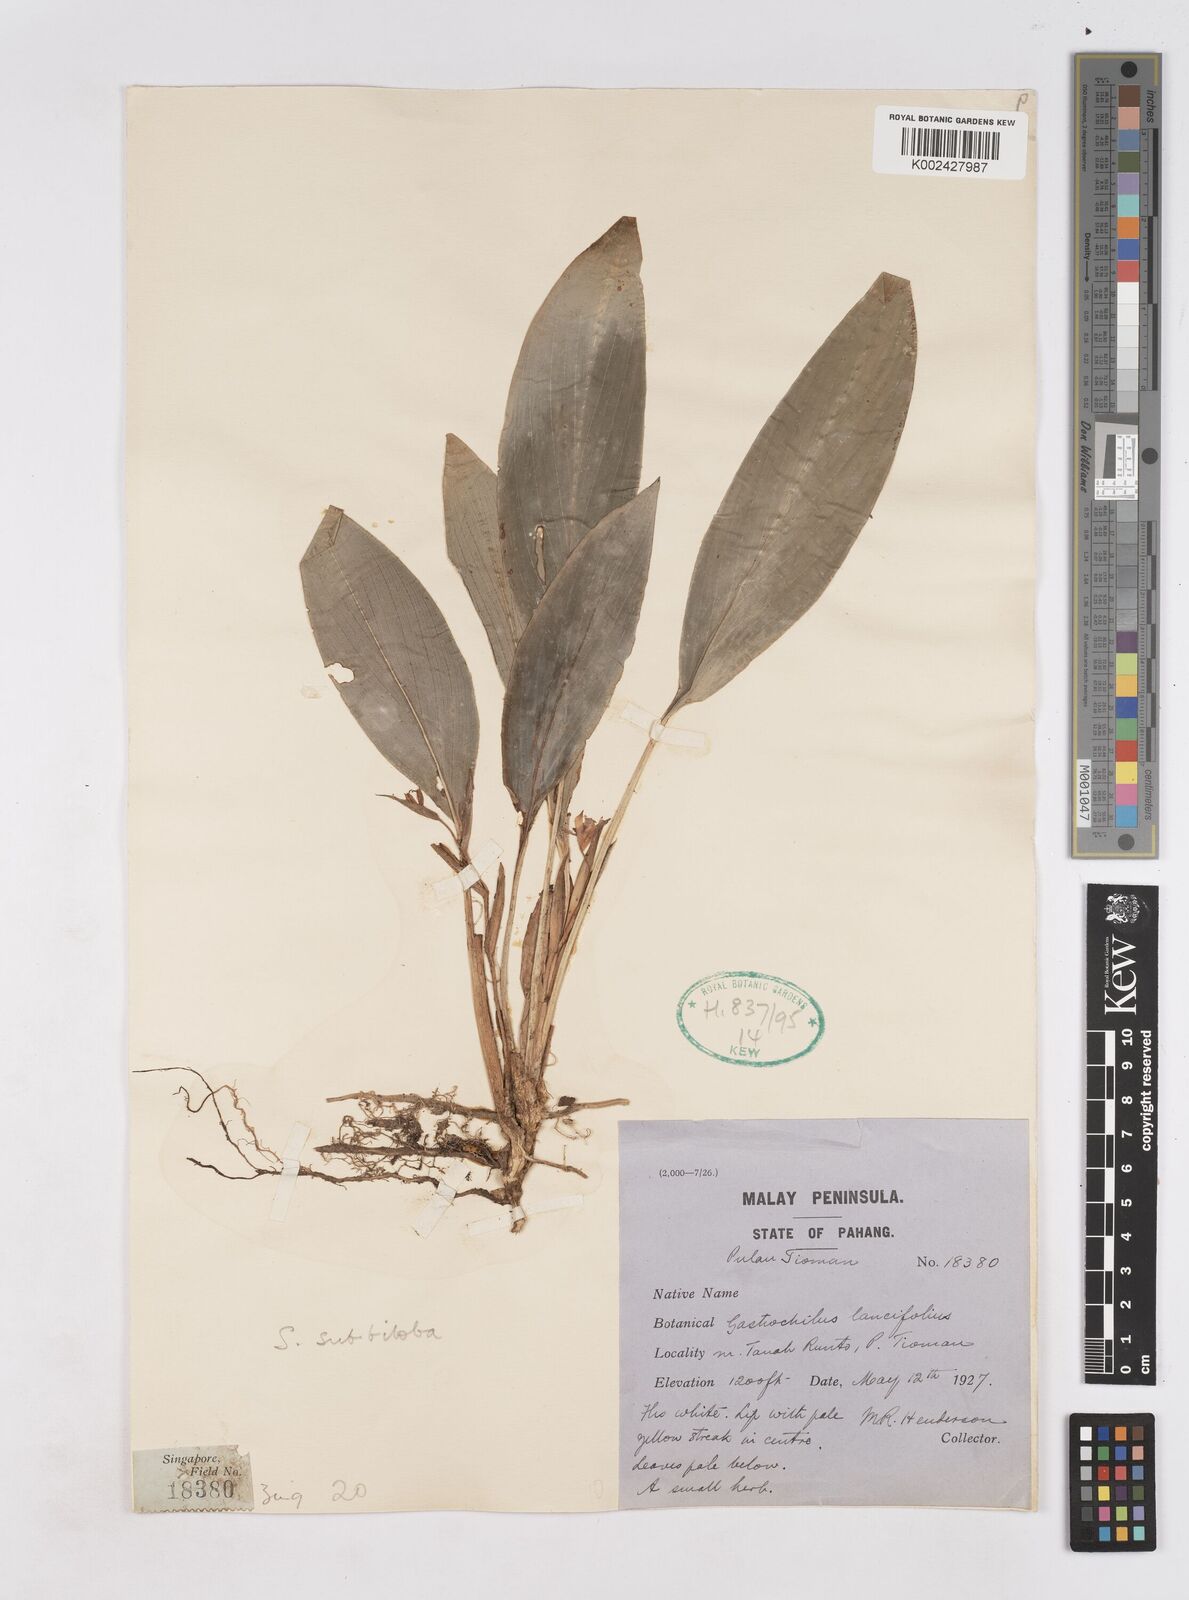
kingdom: Plantae
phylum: Tracheophyta
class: Liliopsida
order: Zingiberales
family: Zingiberaceae
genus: Scaphochlamys
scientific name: Scaphochlamys subbiloba
